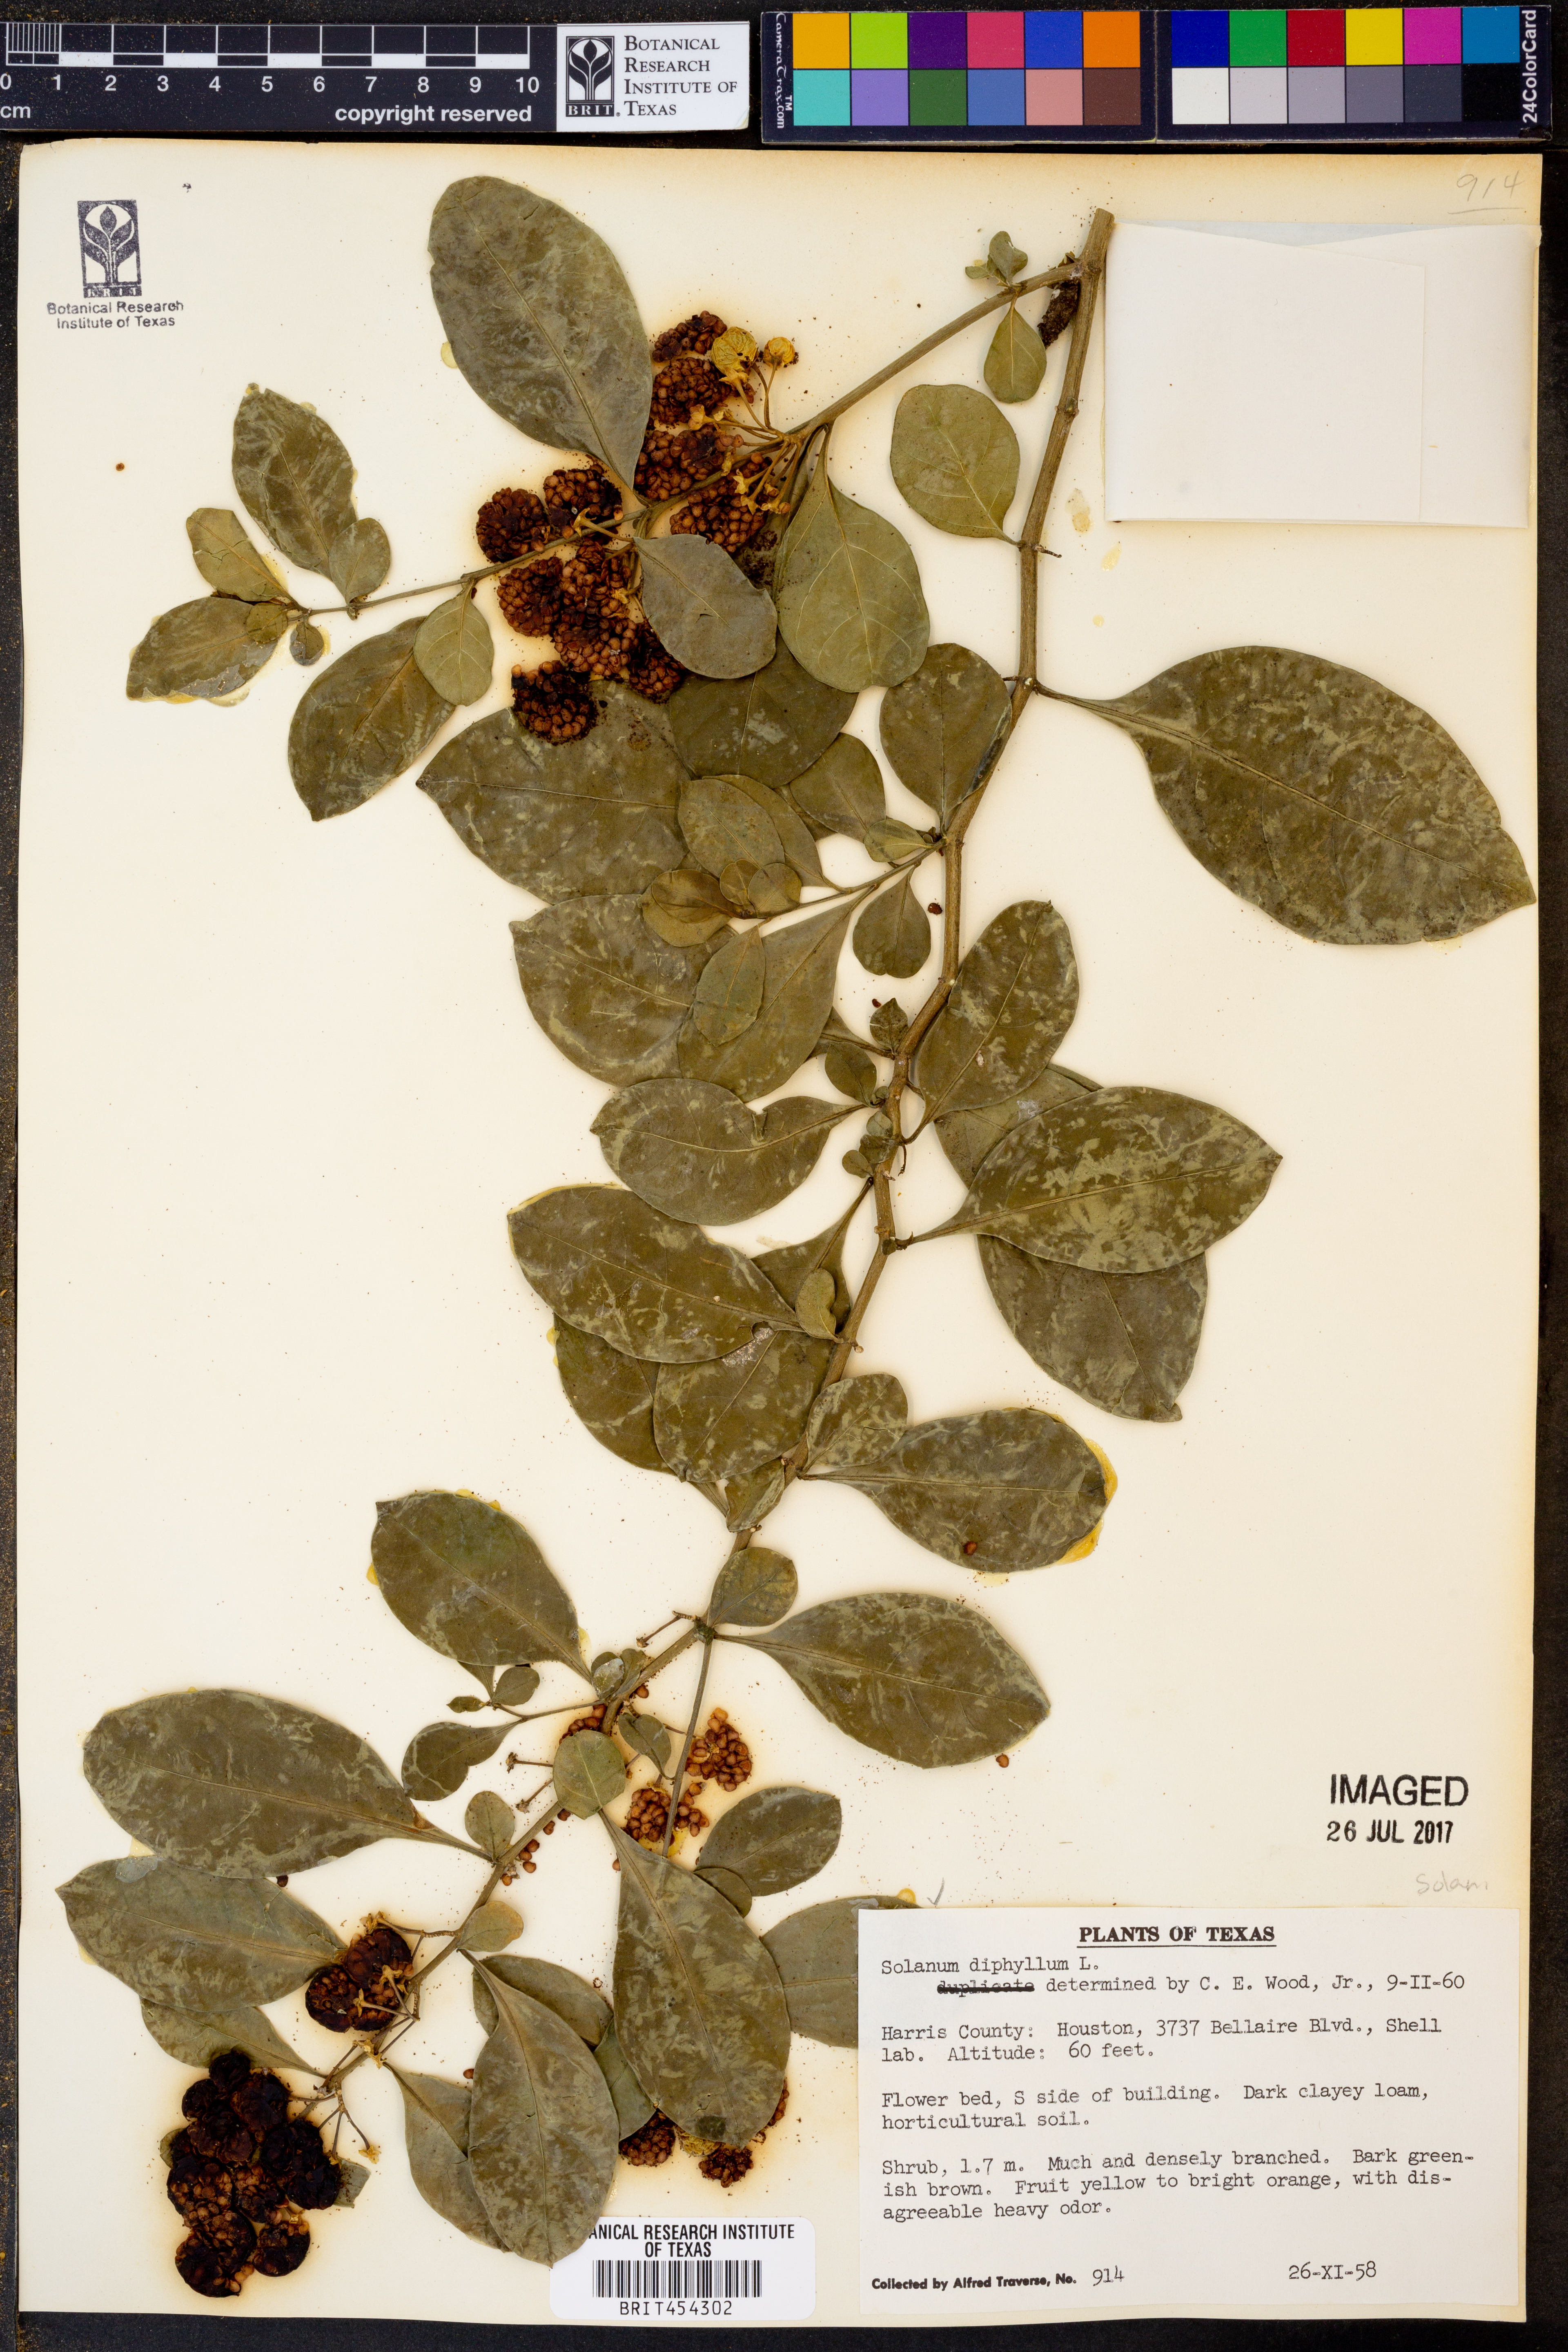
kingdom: Plantae
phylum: Tracheophyta
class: Magnoliopsida
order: Solanales
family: Solanaceae
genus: Solanum
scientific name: Solanum diphyllum
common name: Twoleaf nightshade
